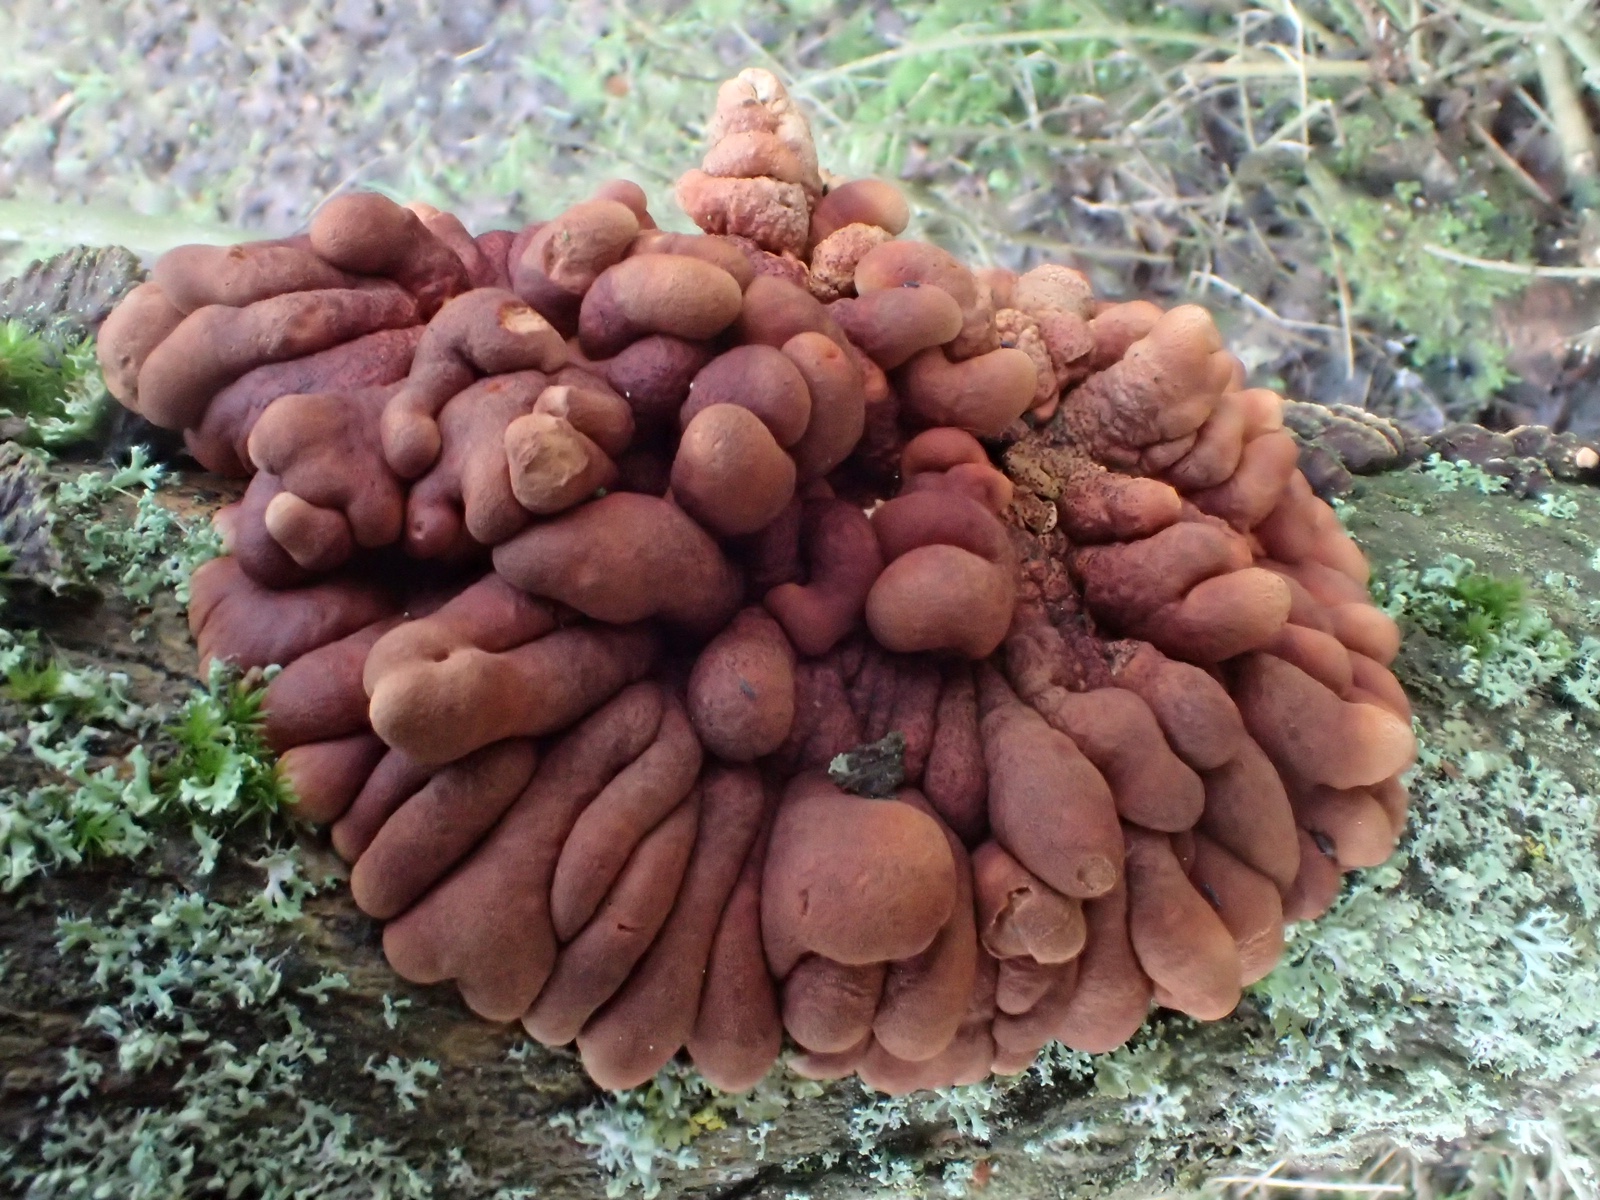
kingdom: Fungi
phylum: Ascomycota
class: Sordariomycetes
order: Hypocreales
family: Hypocreaceae
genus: Hypocreopsis
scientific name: Hypocreopsis lichenoides
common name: pilfinger
